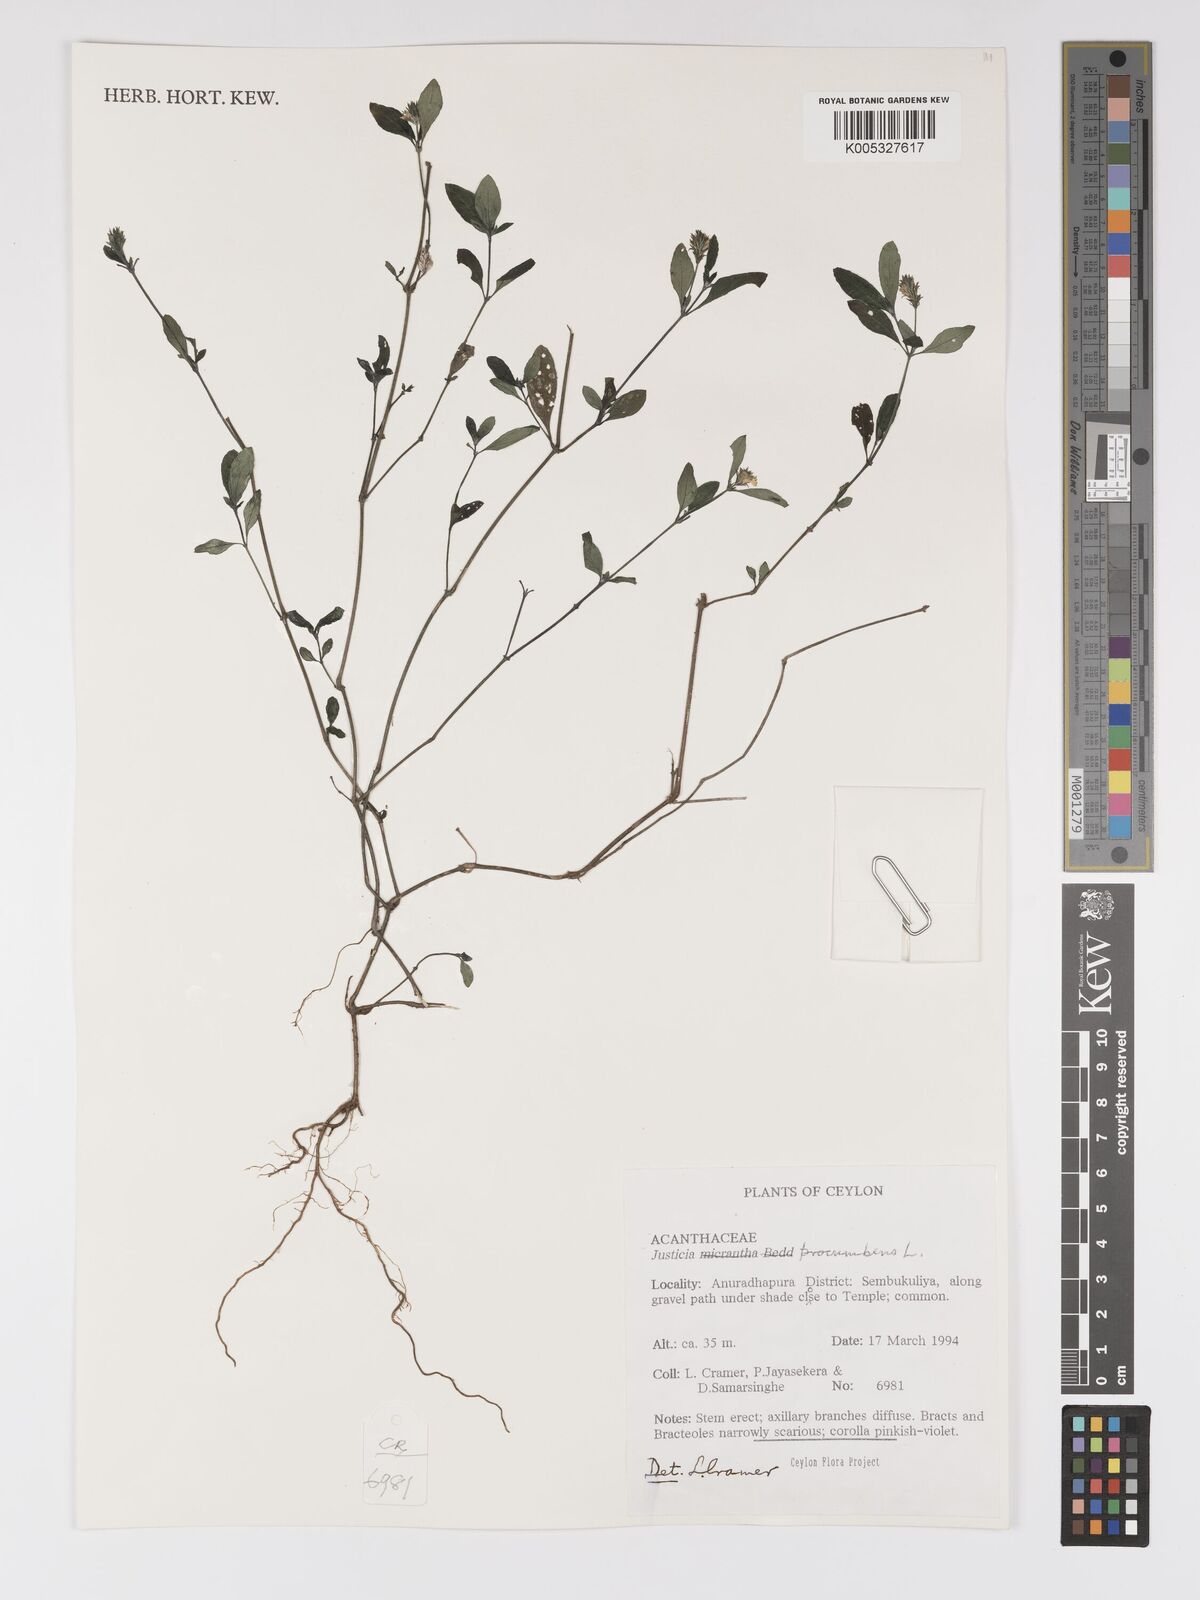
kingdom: Plantae
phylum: Tracheophyta
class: Magnoliopsida
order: Lamiales
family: Acanthaceae
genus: Rostellularia
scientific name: Rostellularia procumbens
